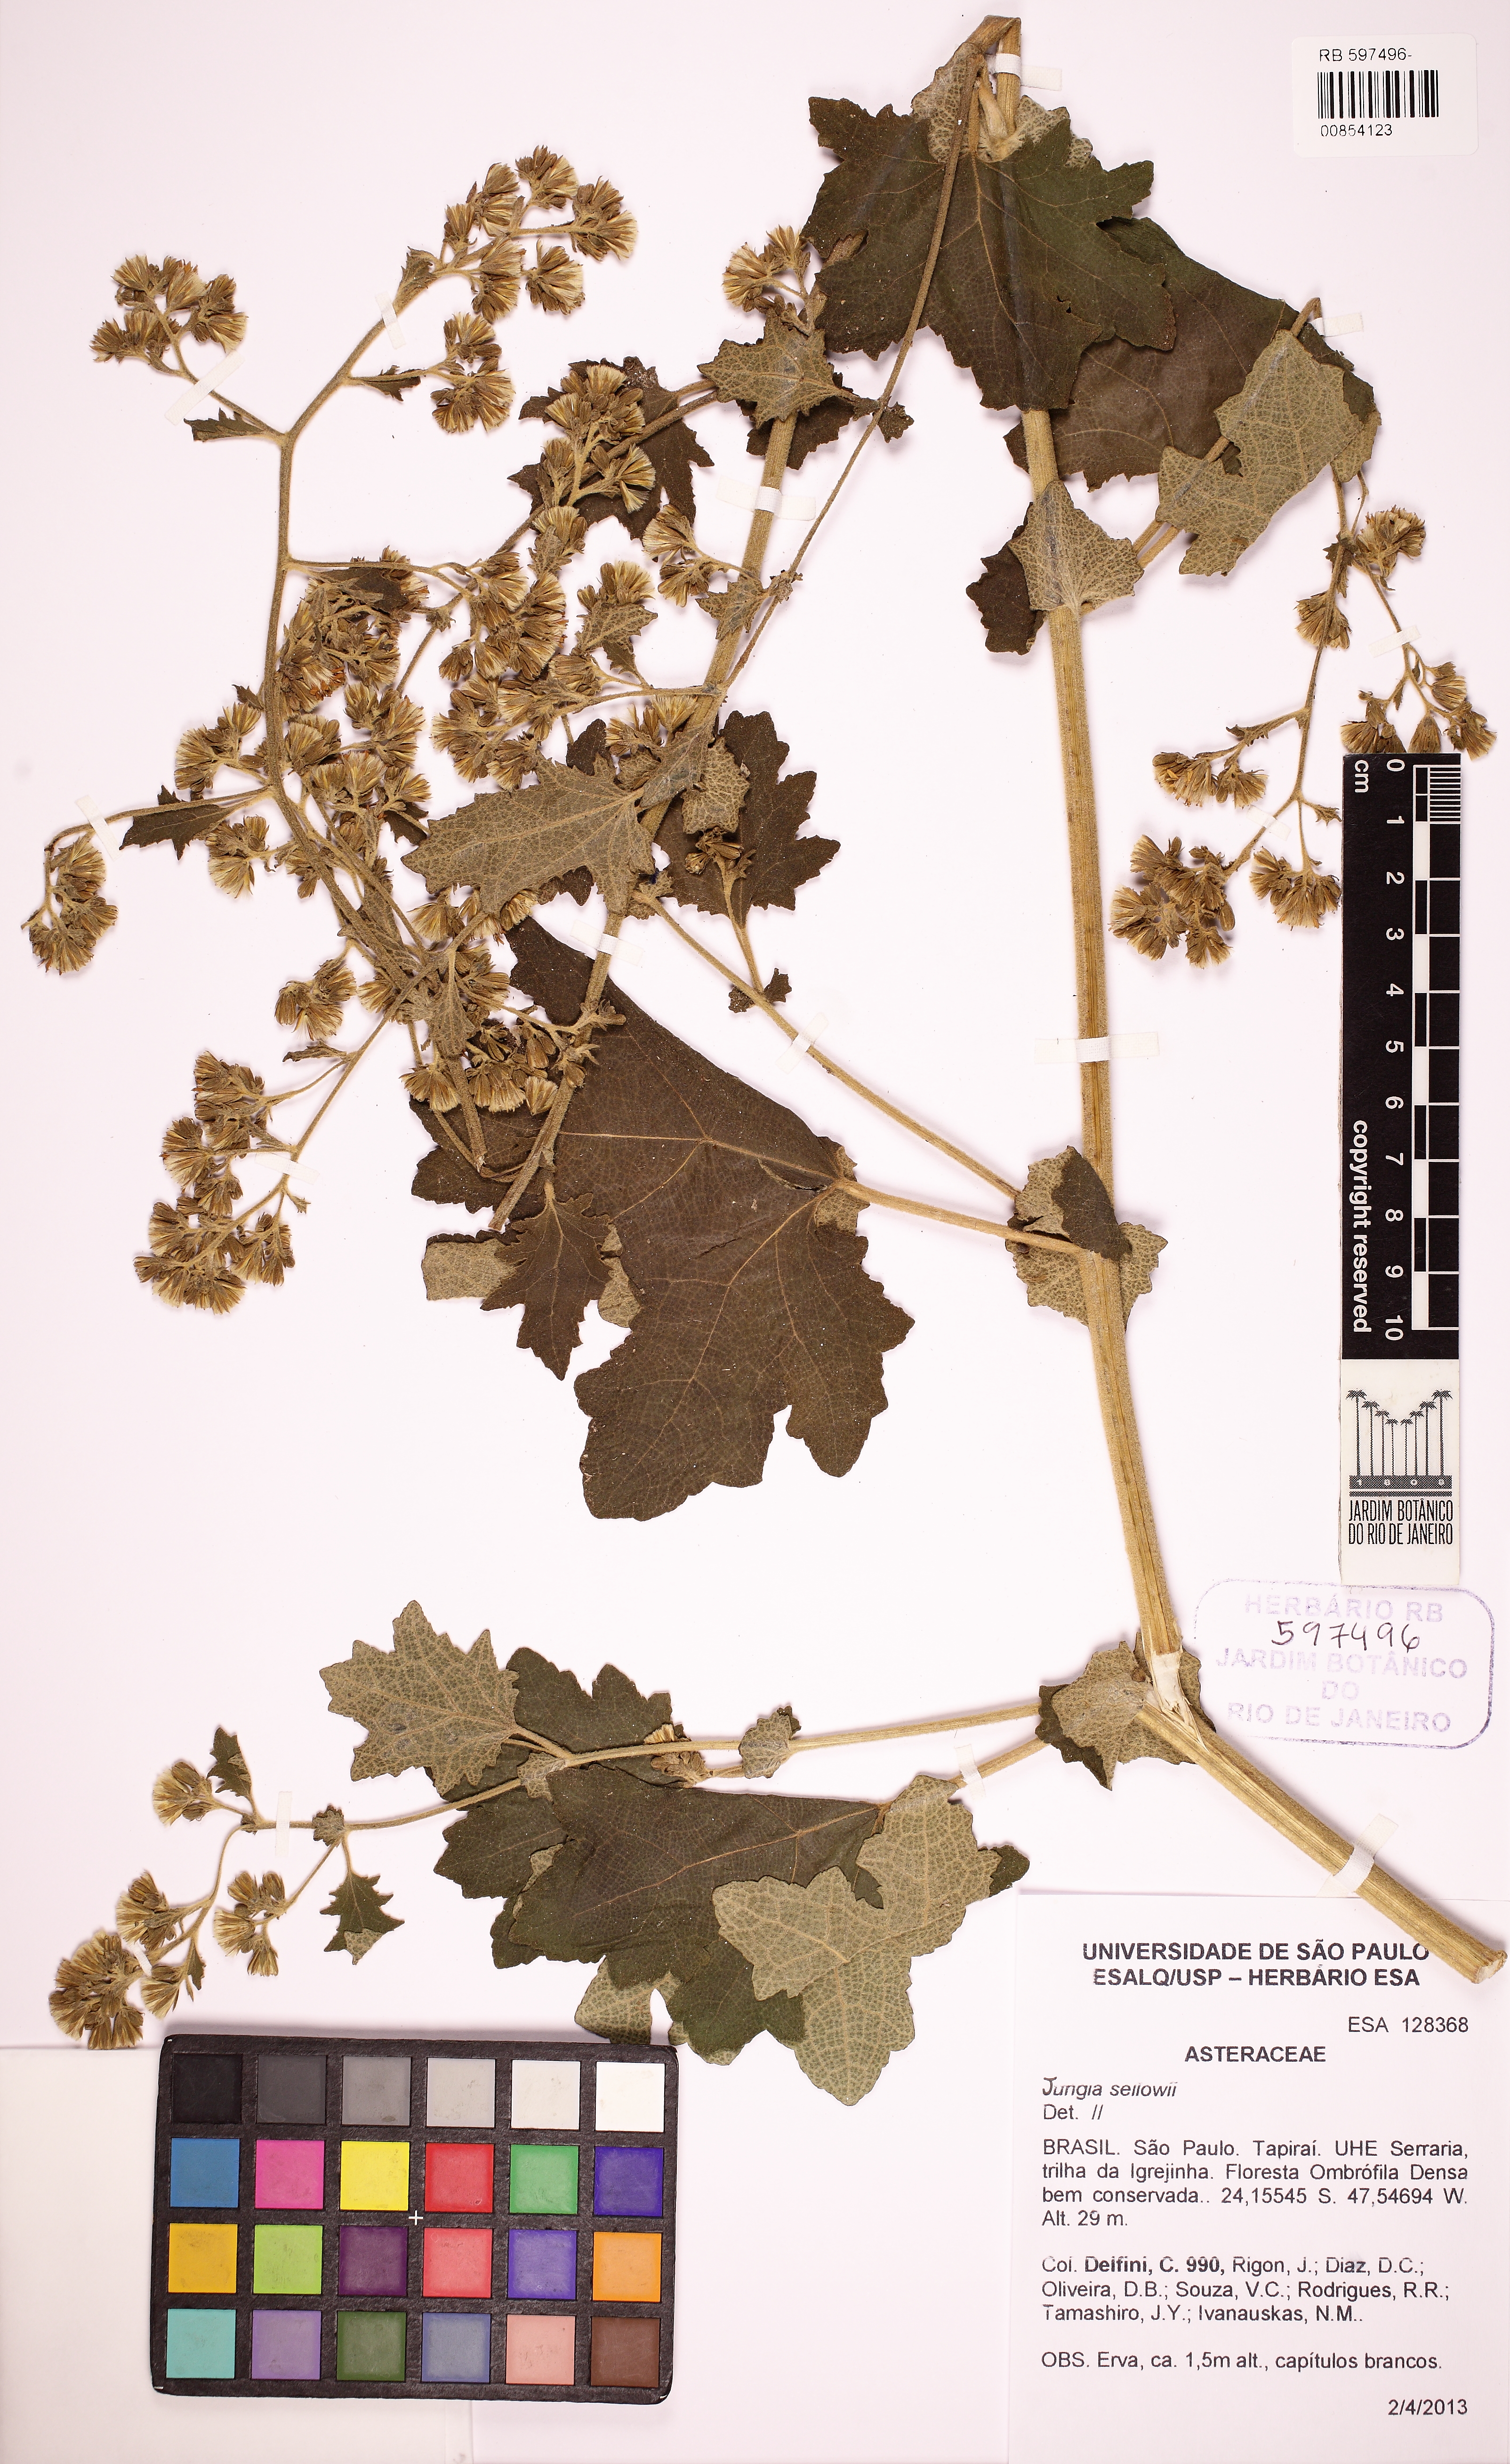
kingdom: Plantae
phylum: Tracheophyta
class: Magnoliopsida
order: Malpighiales
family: Dichapetalaceae
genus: Tapura
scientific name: Tapura
